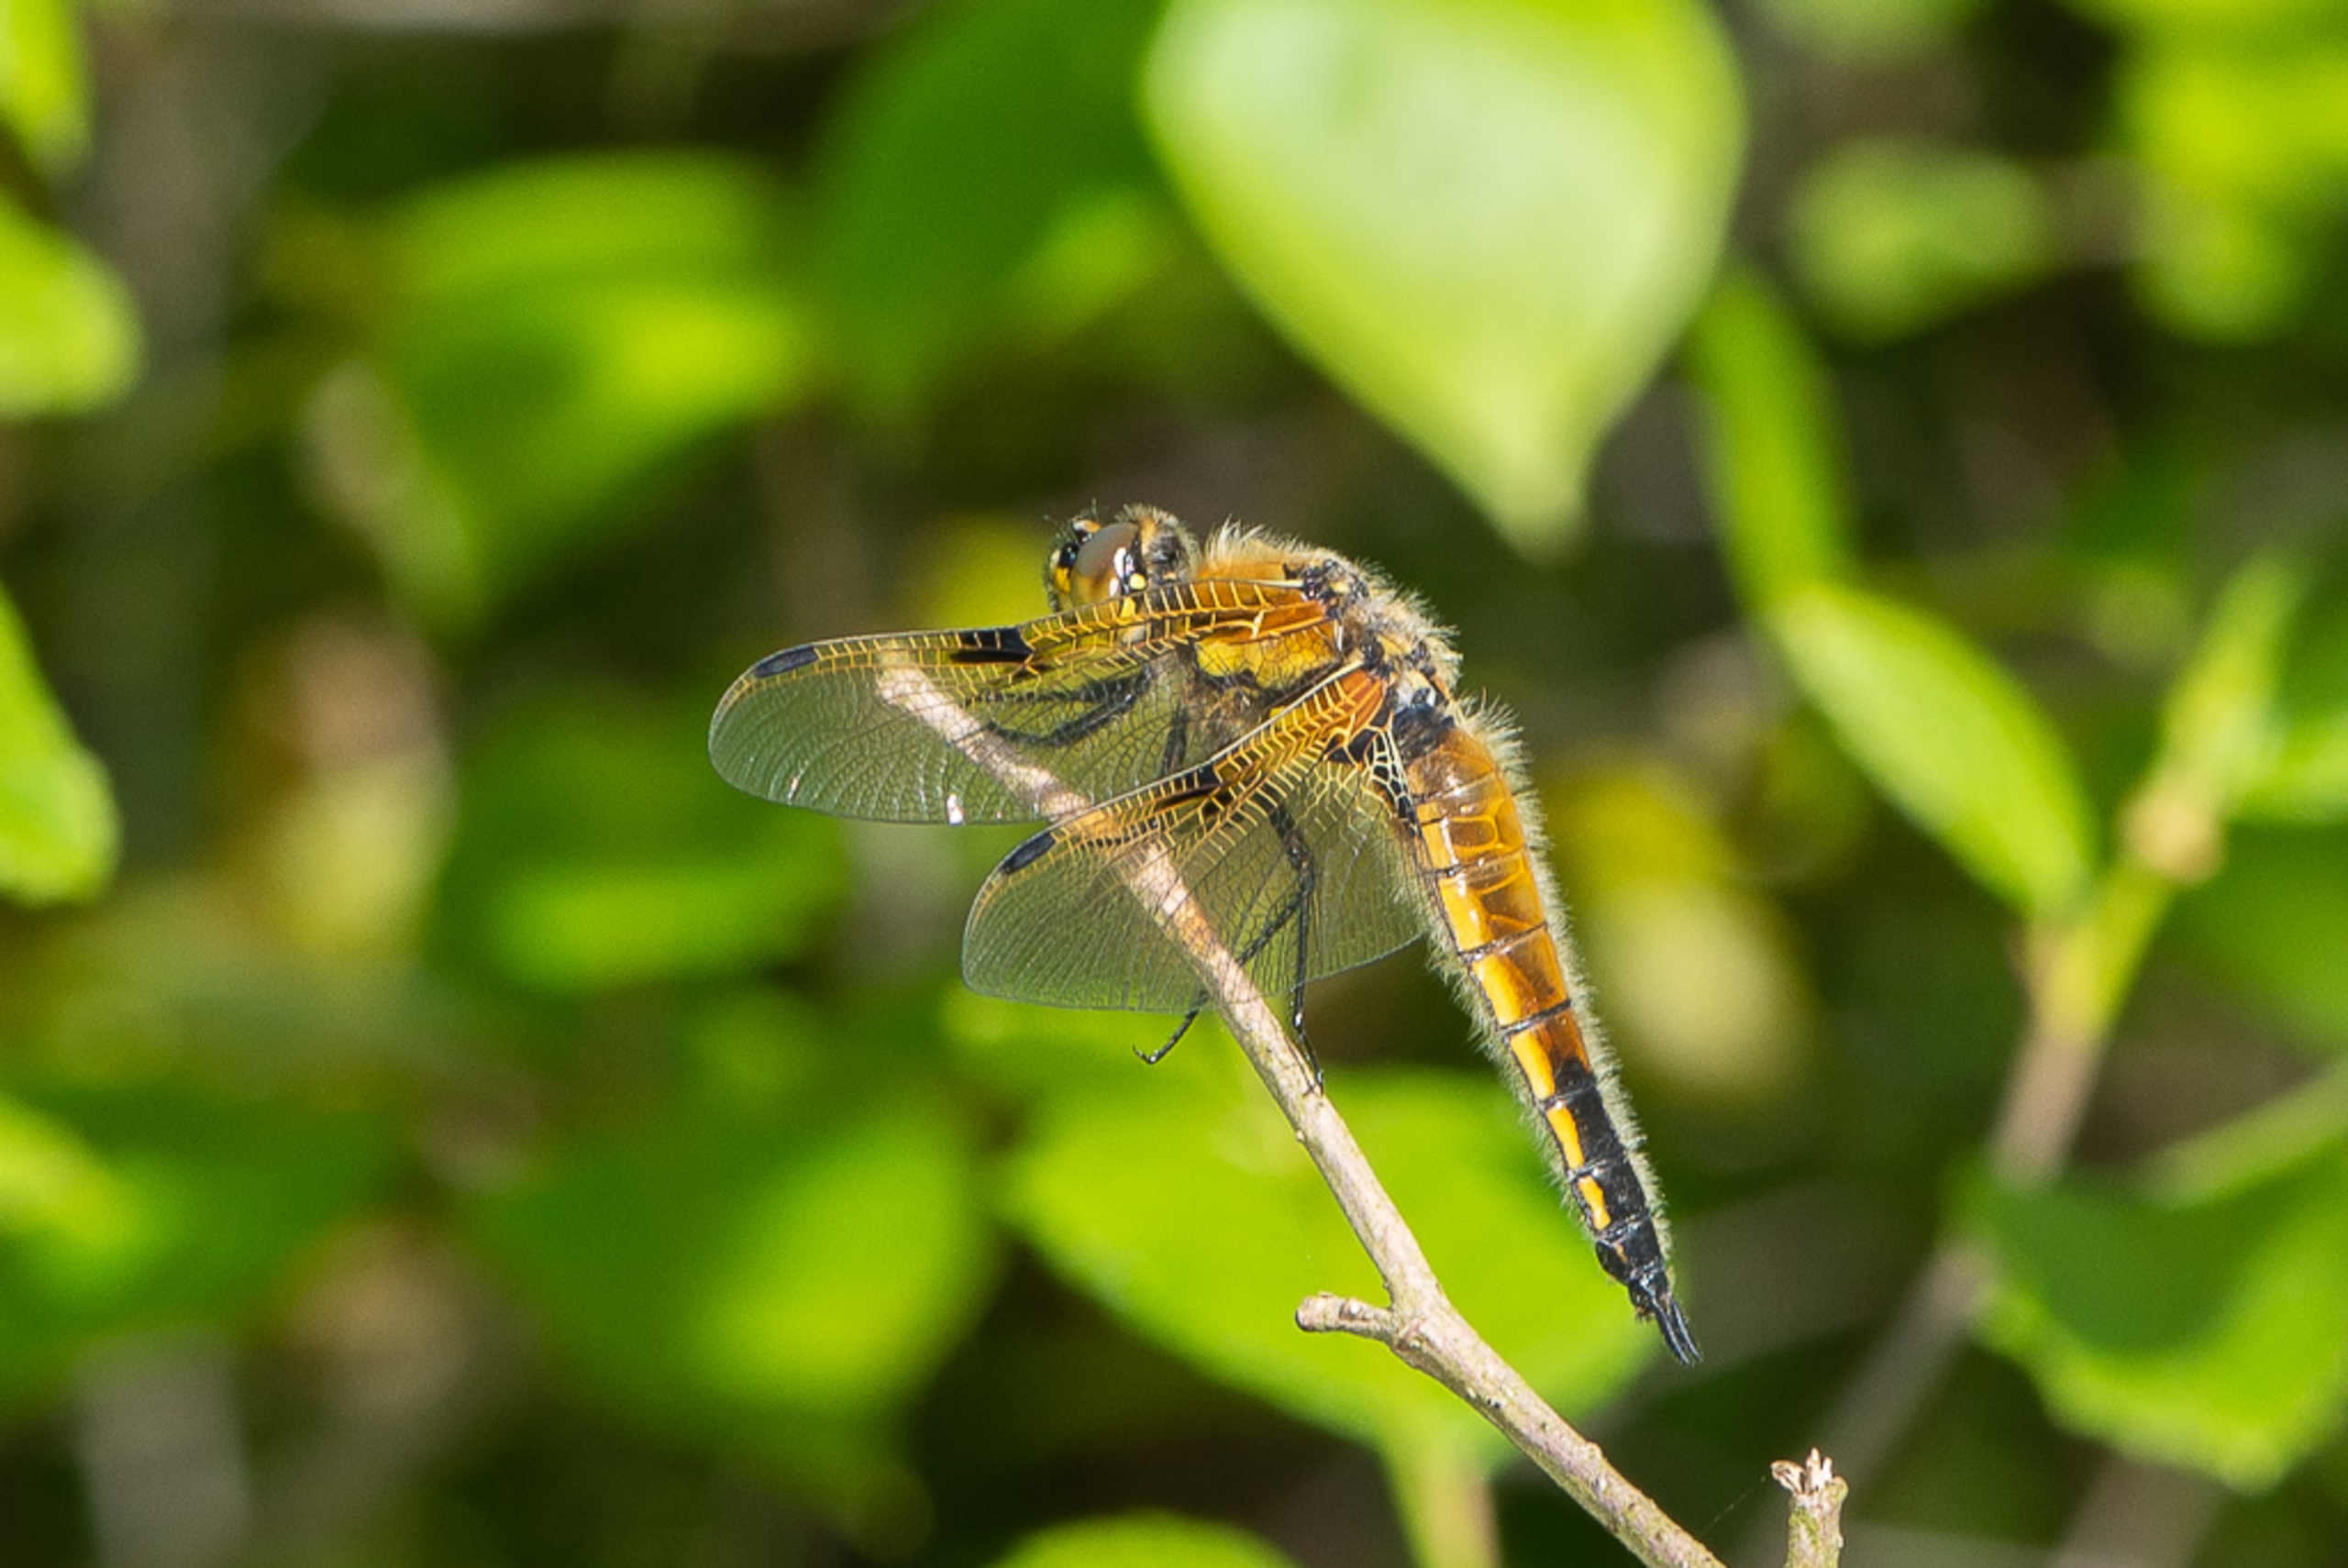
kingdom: Animalia
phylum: Arthropoda
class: Insecta
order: Odonata
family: Libellulidae
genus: Libellula
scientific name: Libellula quadrimaculata
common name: Fireplettet libel
